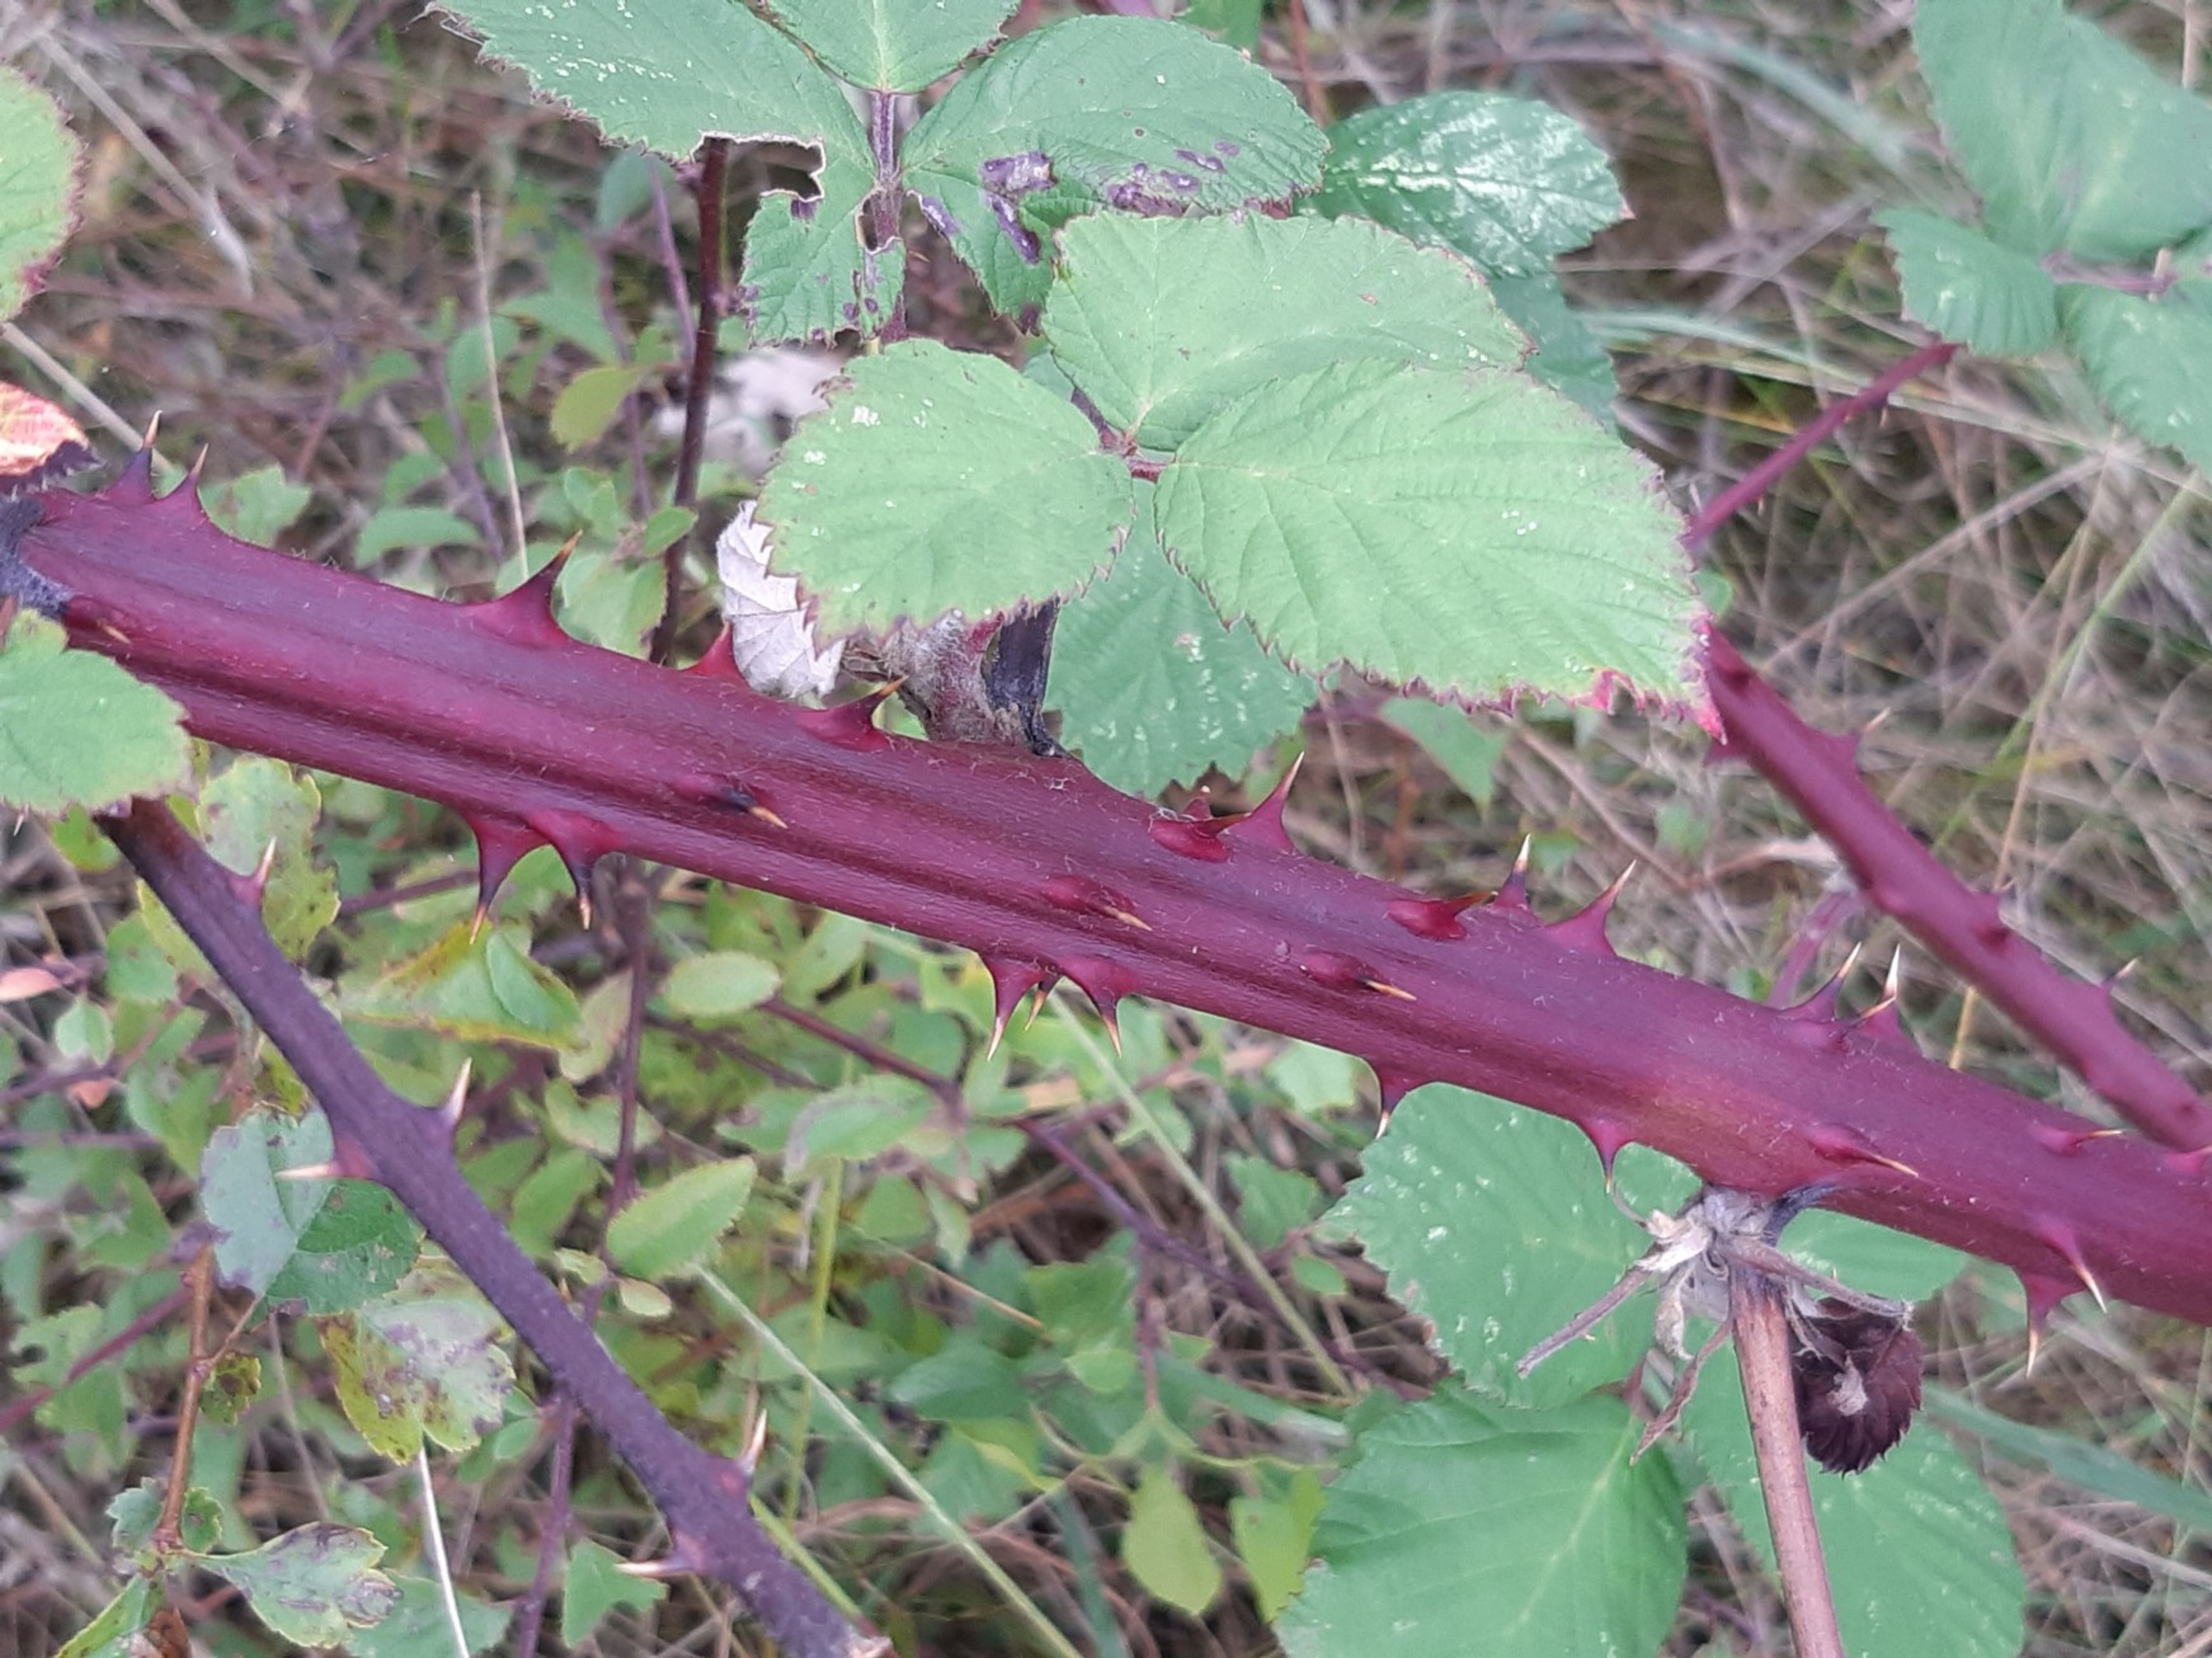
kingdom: Plantae
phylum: Tracheophyta
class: Magnoliopsida
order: Rosales
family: Rosaceae
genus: Rubus
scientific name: Rubus armeniacus
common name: Armensk brombær
